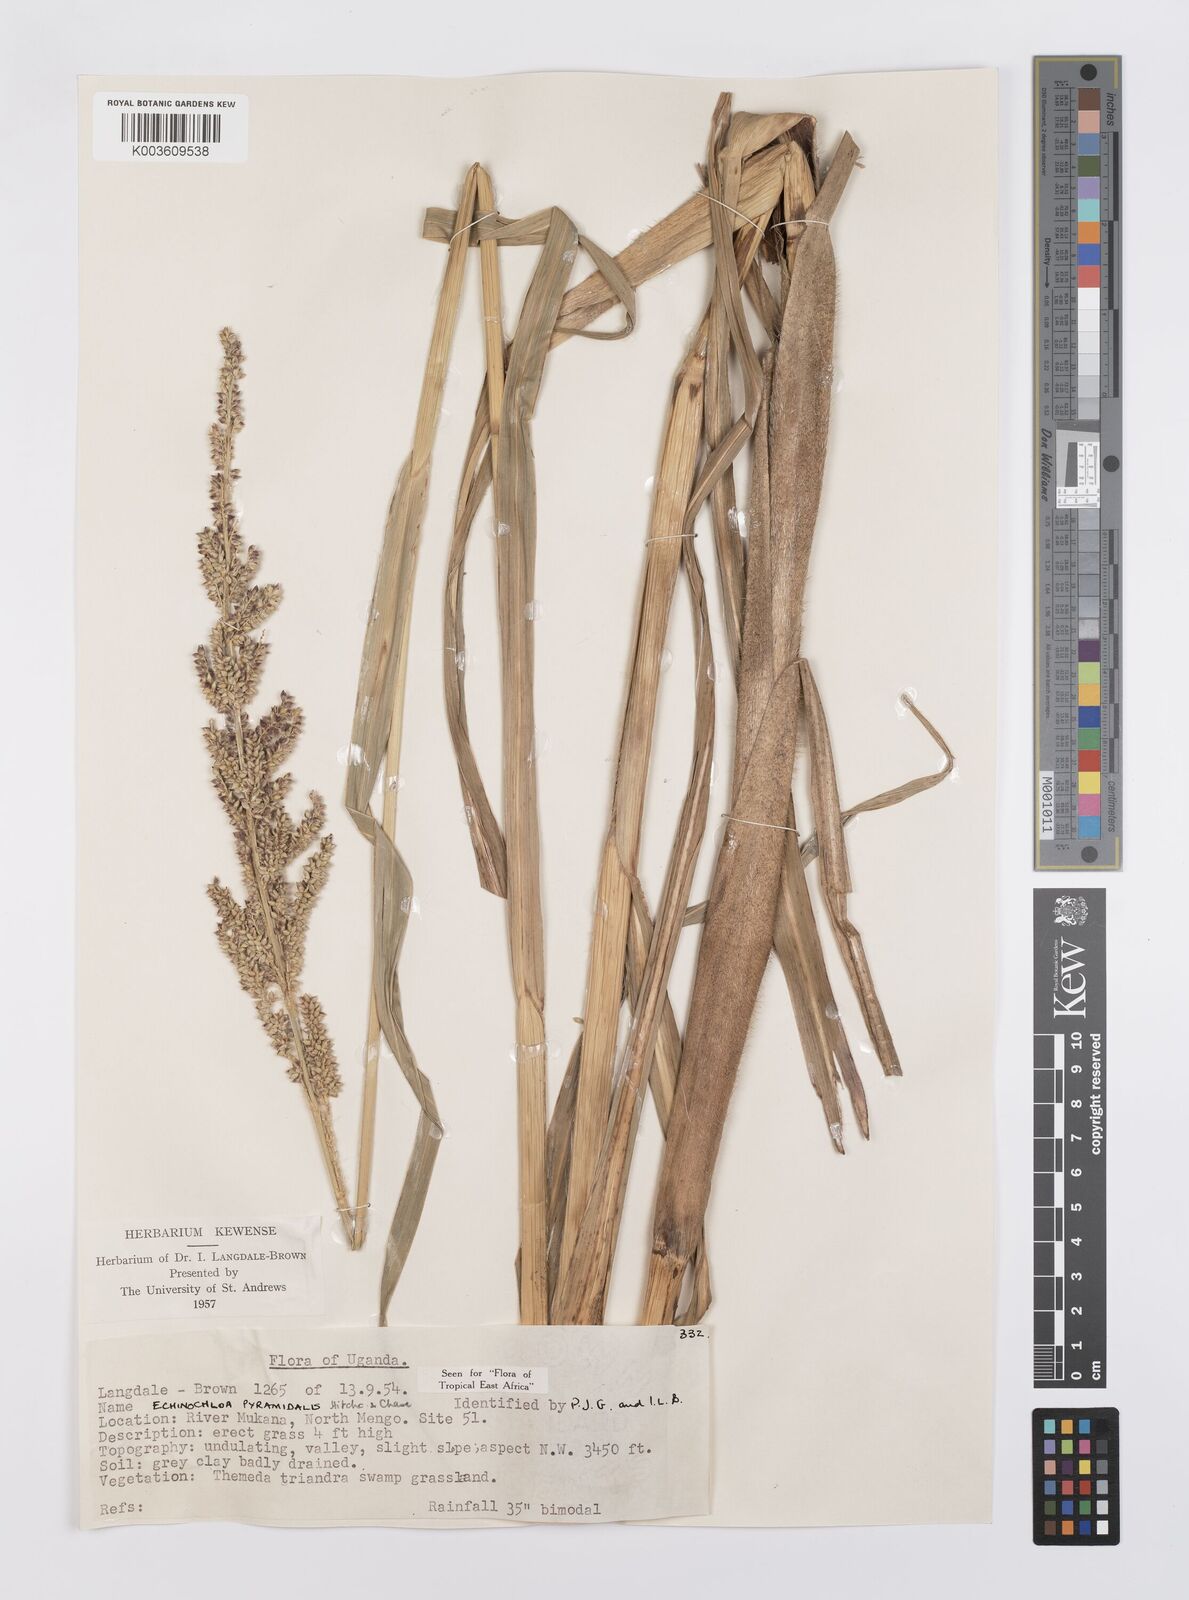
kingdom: Plantae
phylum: Tracheophyta
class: Liliopsida
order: Poales
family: Poaceae
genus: Echinochloa
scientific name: Echinochloa pyramidalis
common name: Antelope grass
